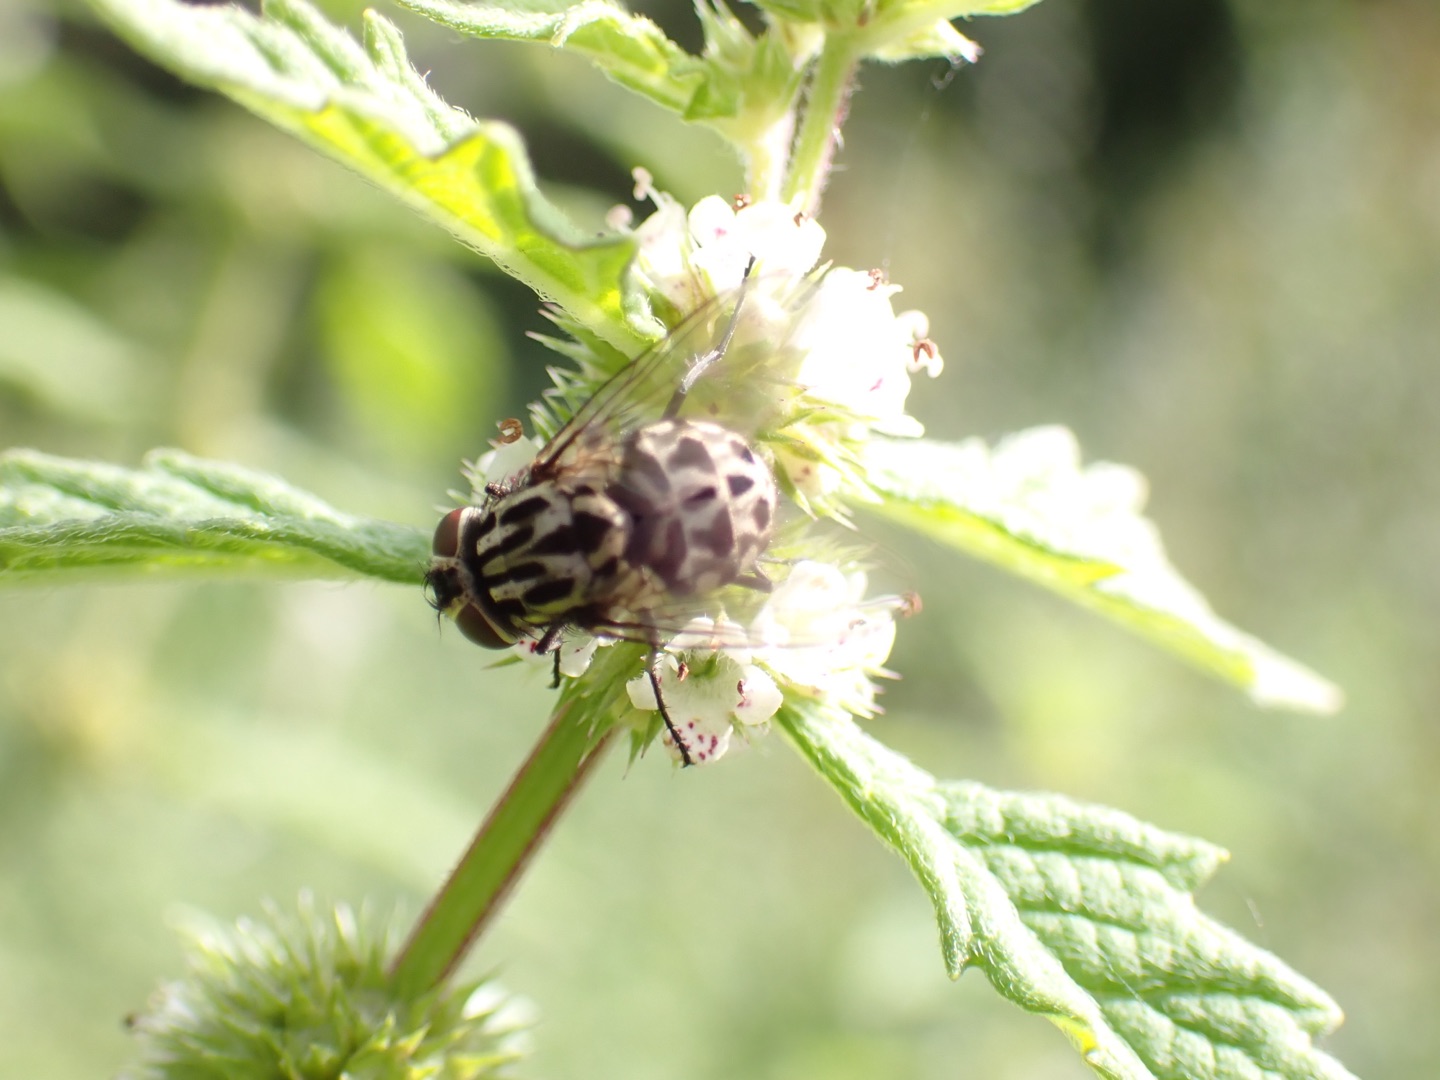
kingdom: Animalia
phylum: Arthropoda
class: Insecta
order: Diptera
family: Muscidae
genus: Graphomya
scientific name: Graphomya maculata
